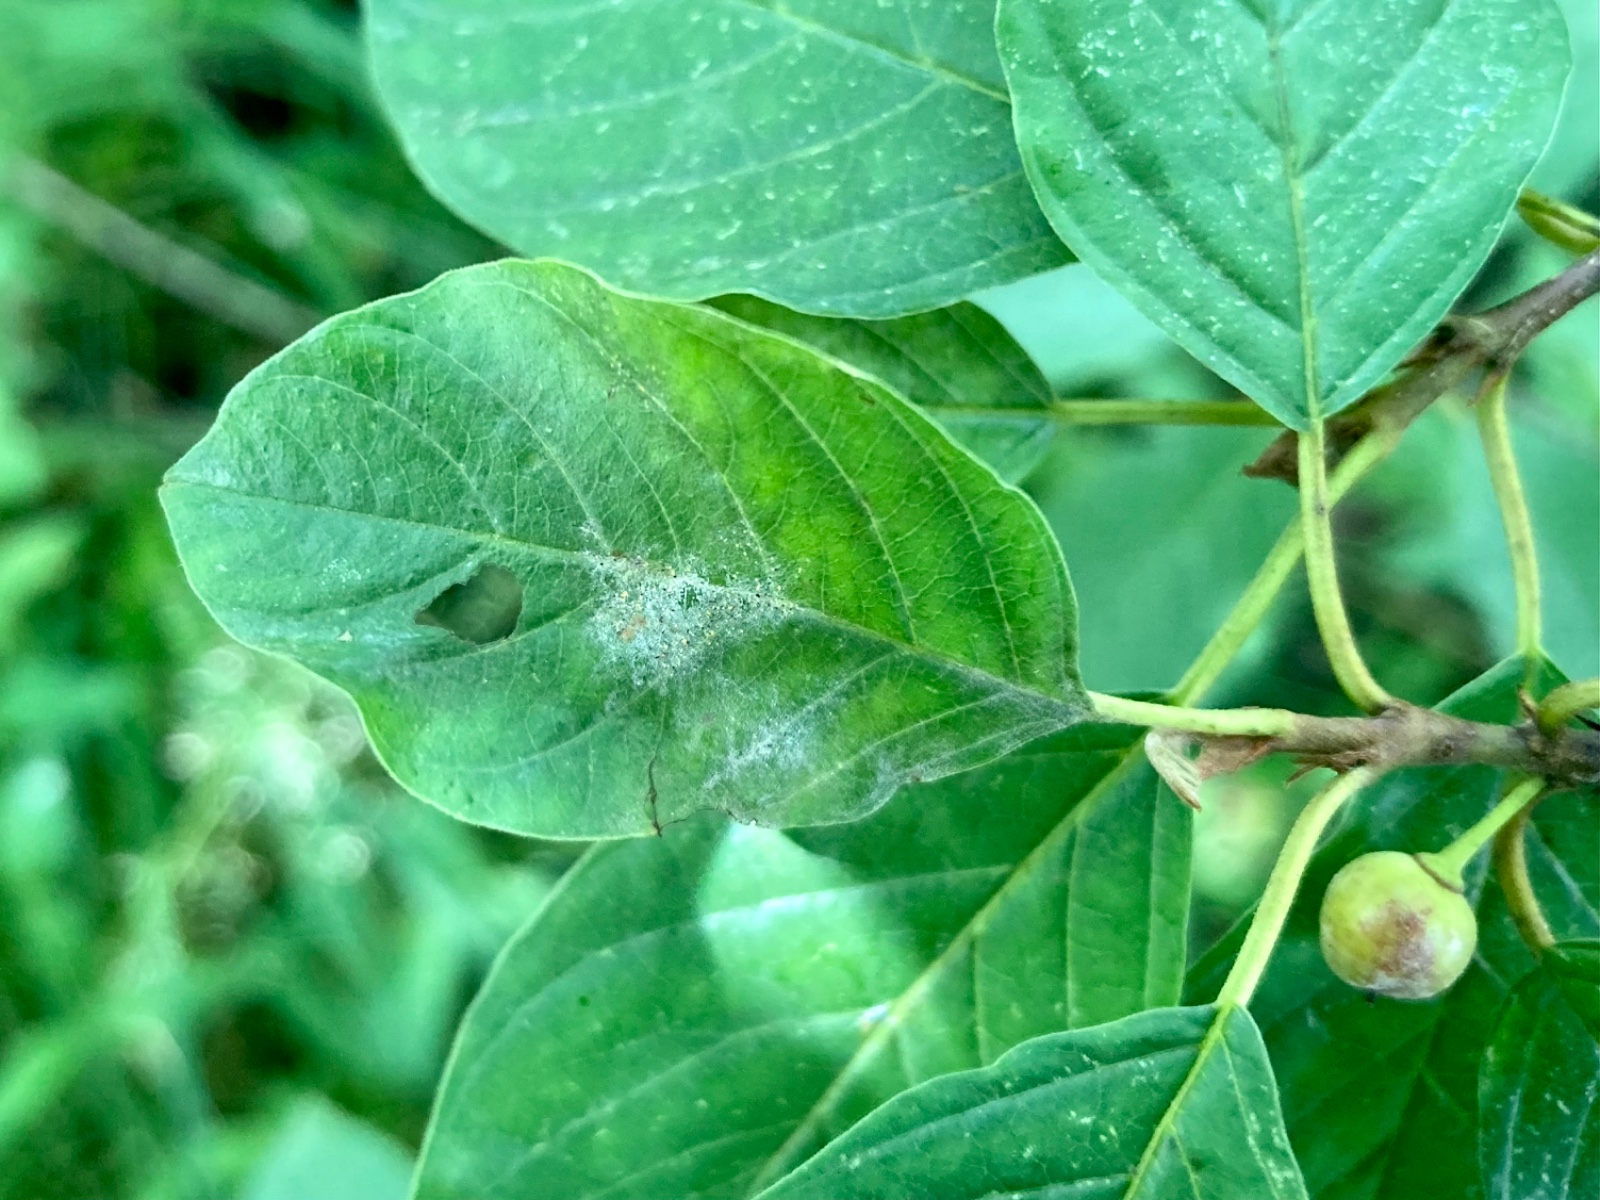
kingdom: Fungi
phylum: Ascomycota
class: Leotiomycetes
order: Helotiales
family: Erysiphaceae
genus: Erysiphe
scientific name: Erysiphe divaricata
